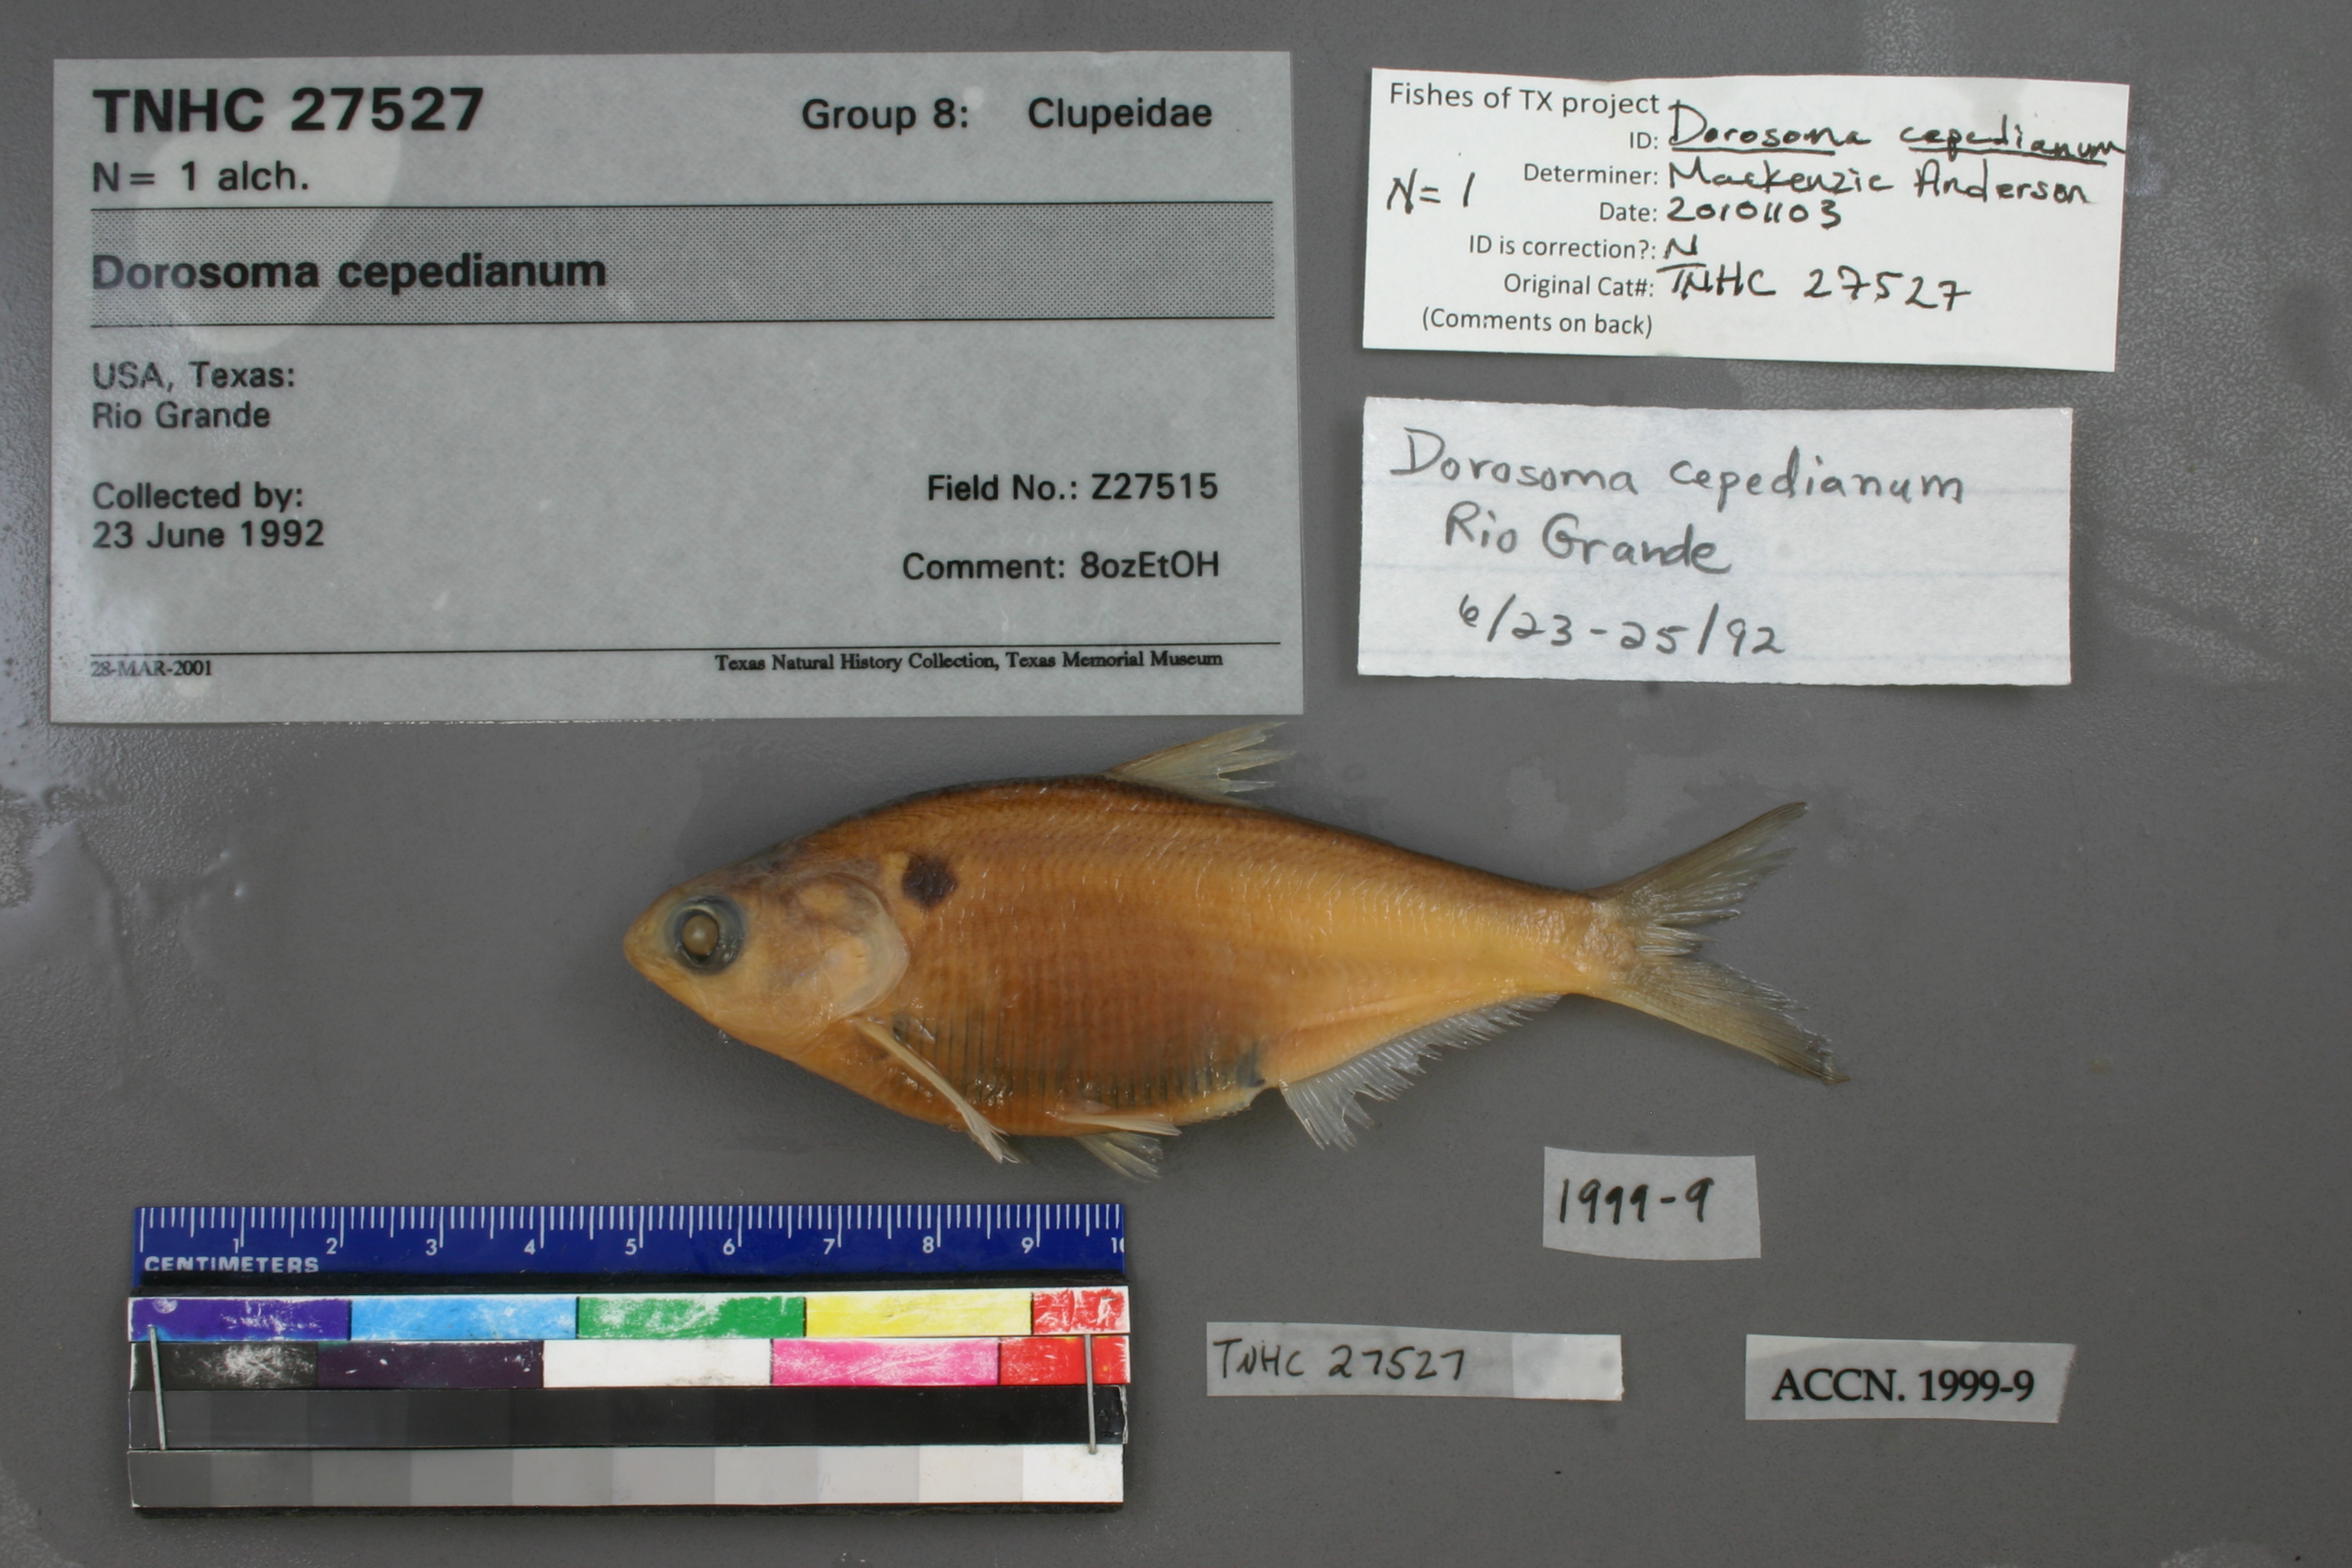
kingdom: Animalia
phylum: Chordata
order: Clupeiformes
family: Clupeidae
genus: Dorosoma
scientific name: Dorosoma cepedianum
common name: Gizzard shad
